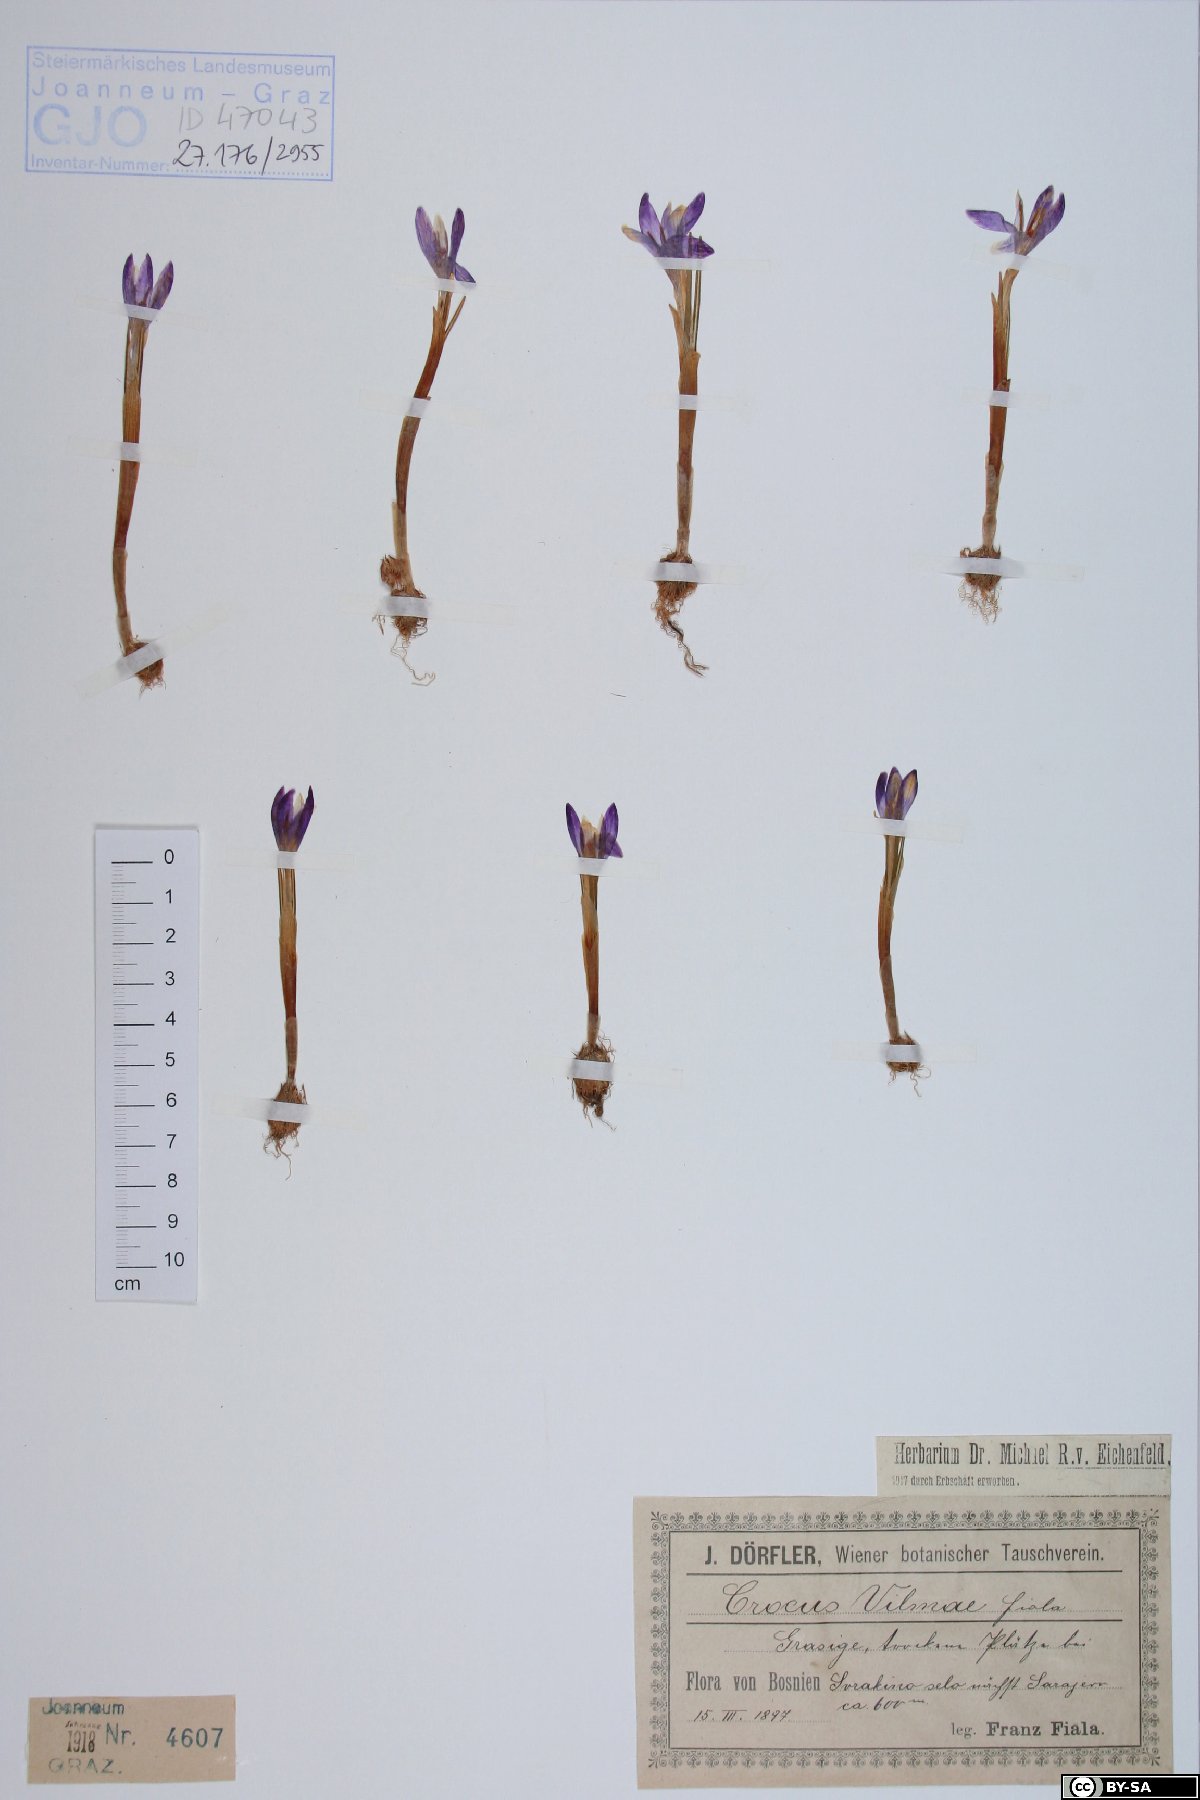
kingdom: Plantae
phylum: Tracheophyta
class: Liliopsida
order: Asparagales
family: Iridaceae
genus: Crocus
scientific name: Crocus vernus
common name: Spring crocus
